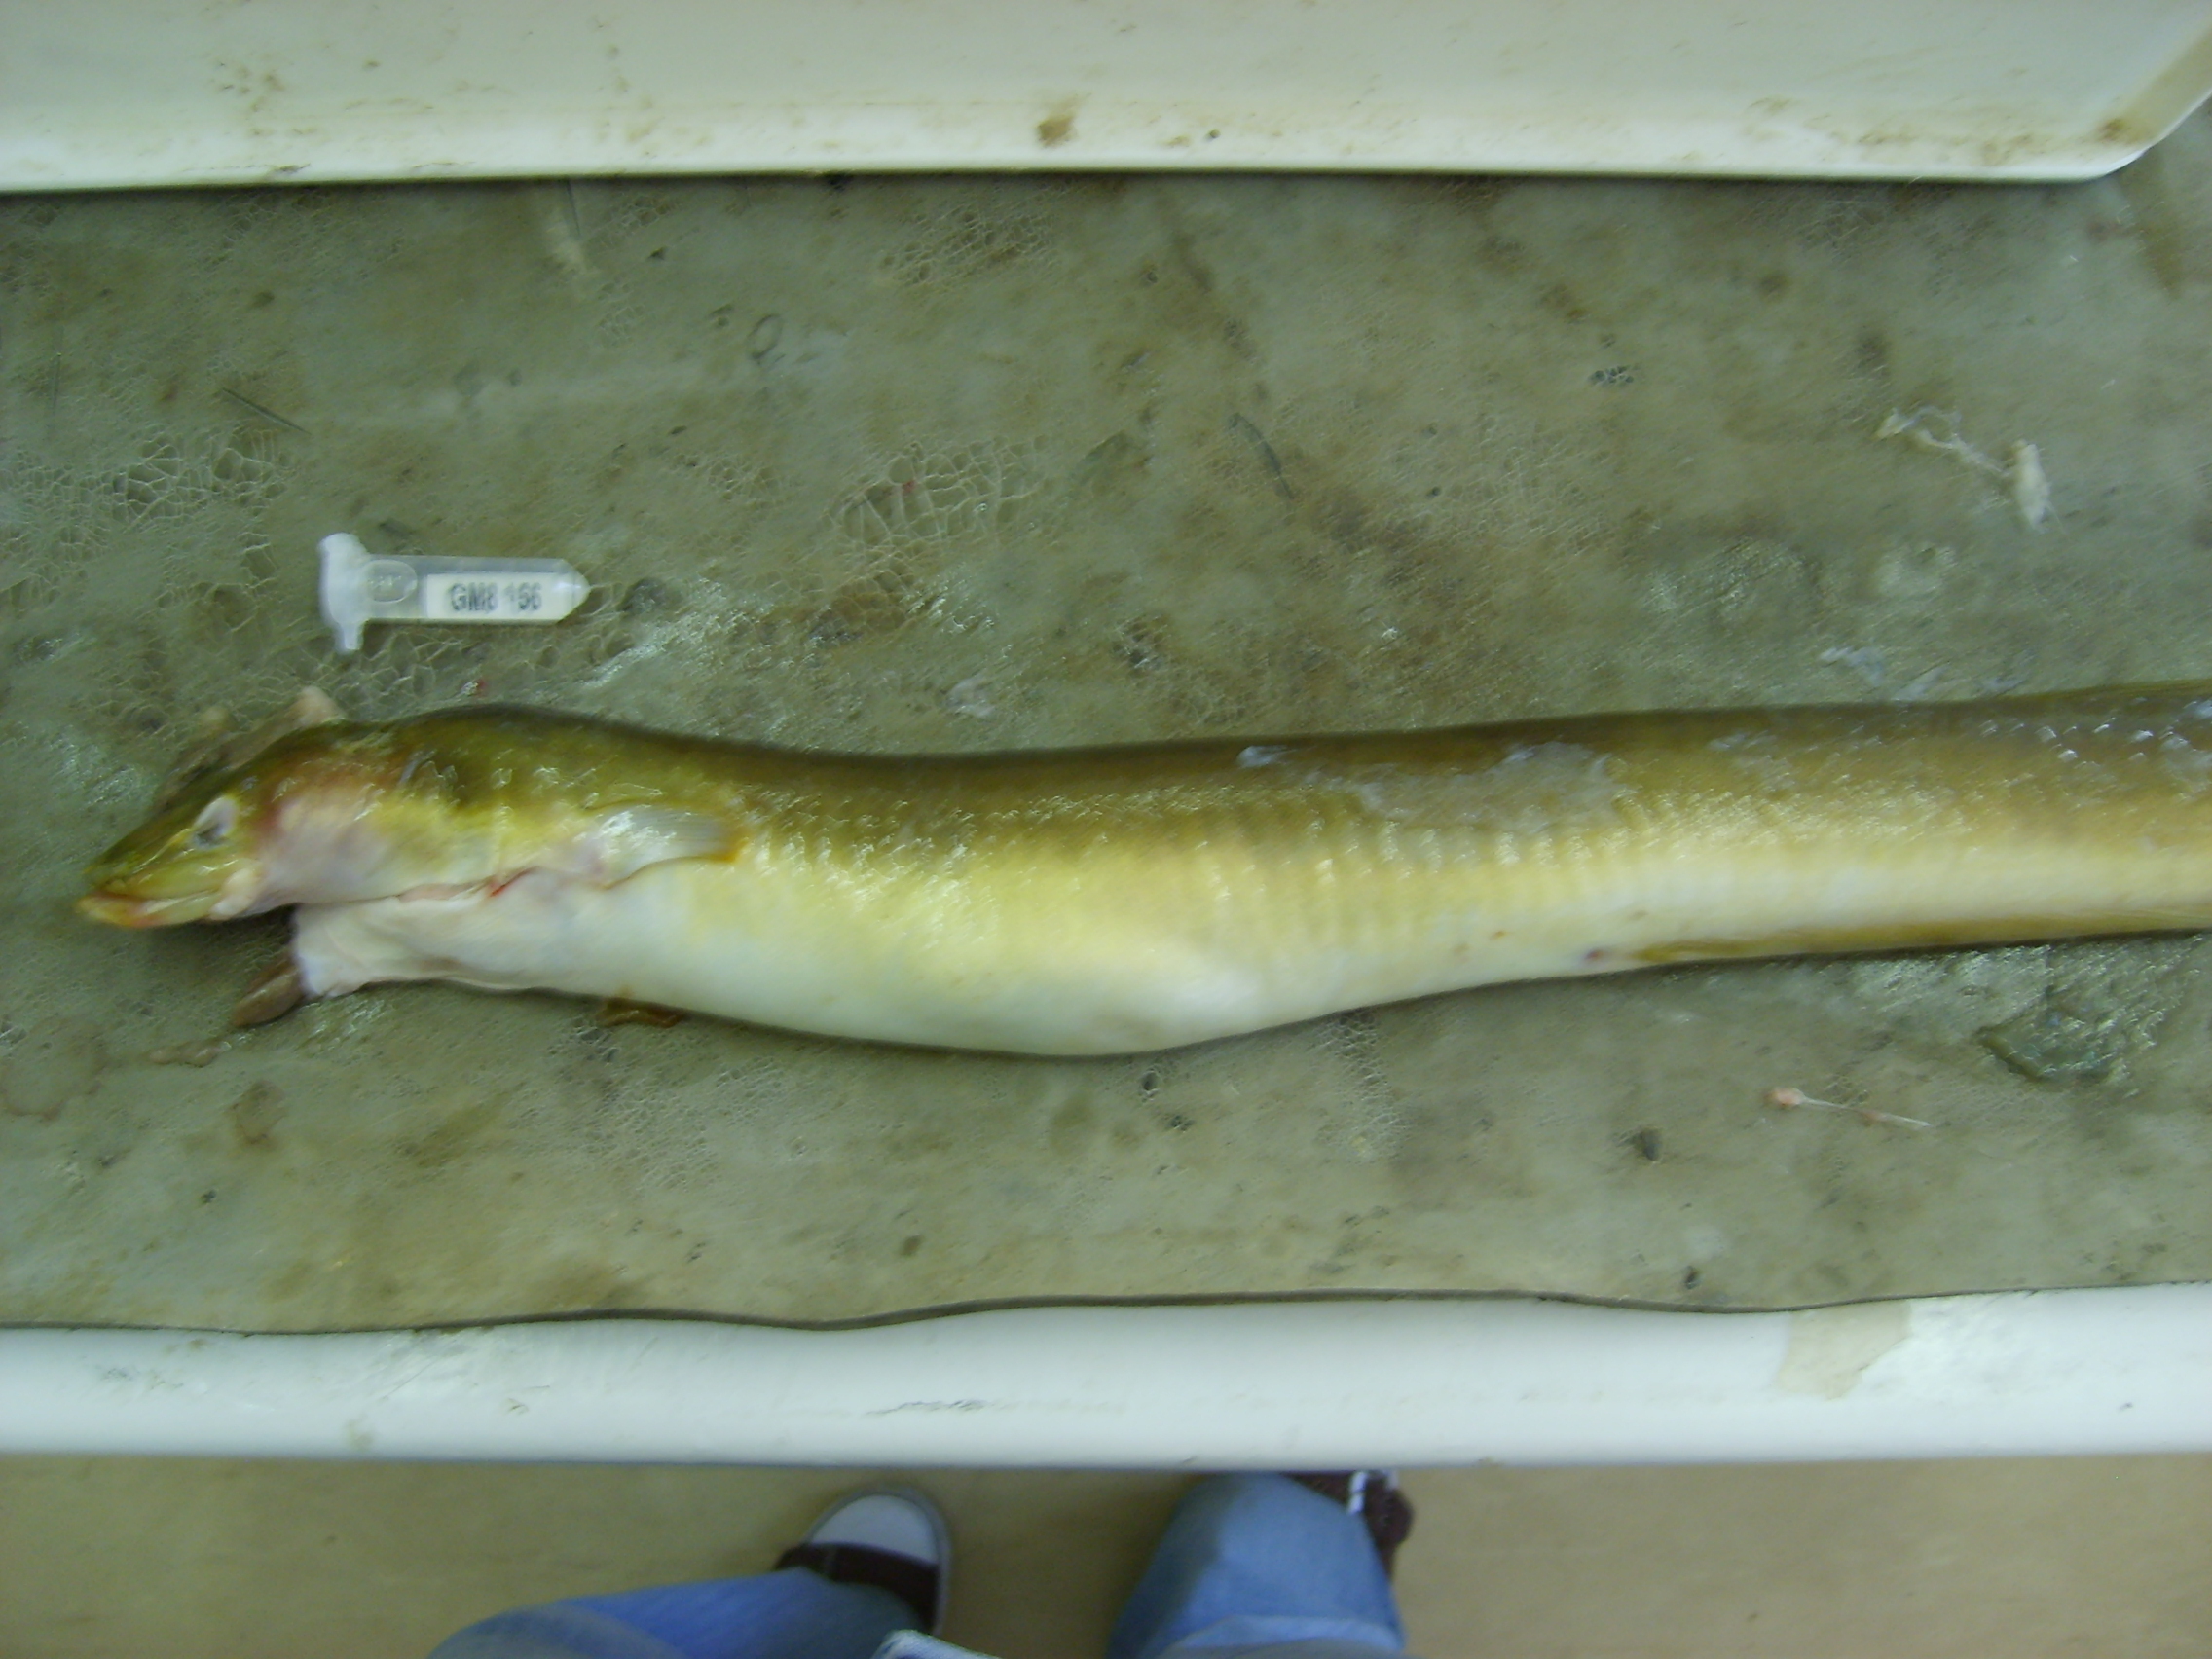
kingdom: Animalia
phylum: Chordata
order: Anguilliformes
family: Anguillidae
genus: Anguilla
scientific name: Anguilla mossambica
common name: African longfin eel
